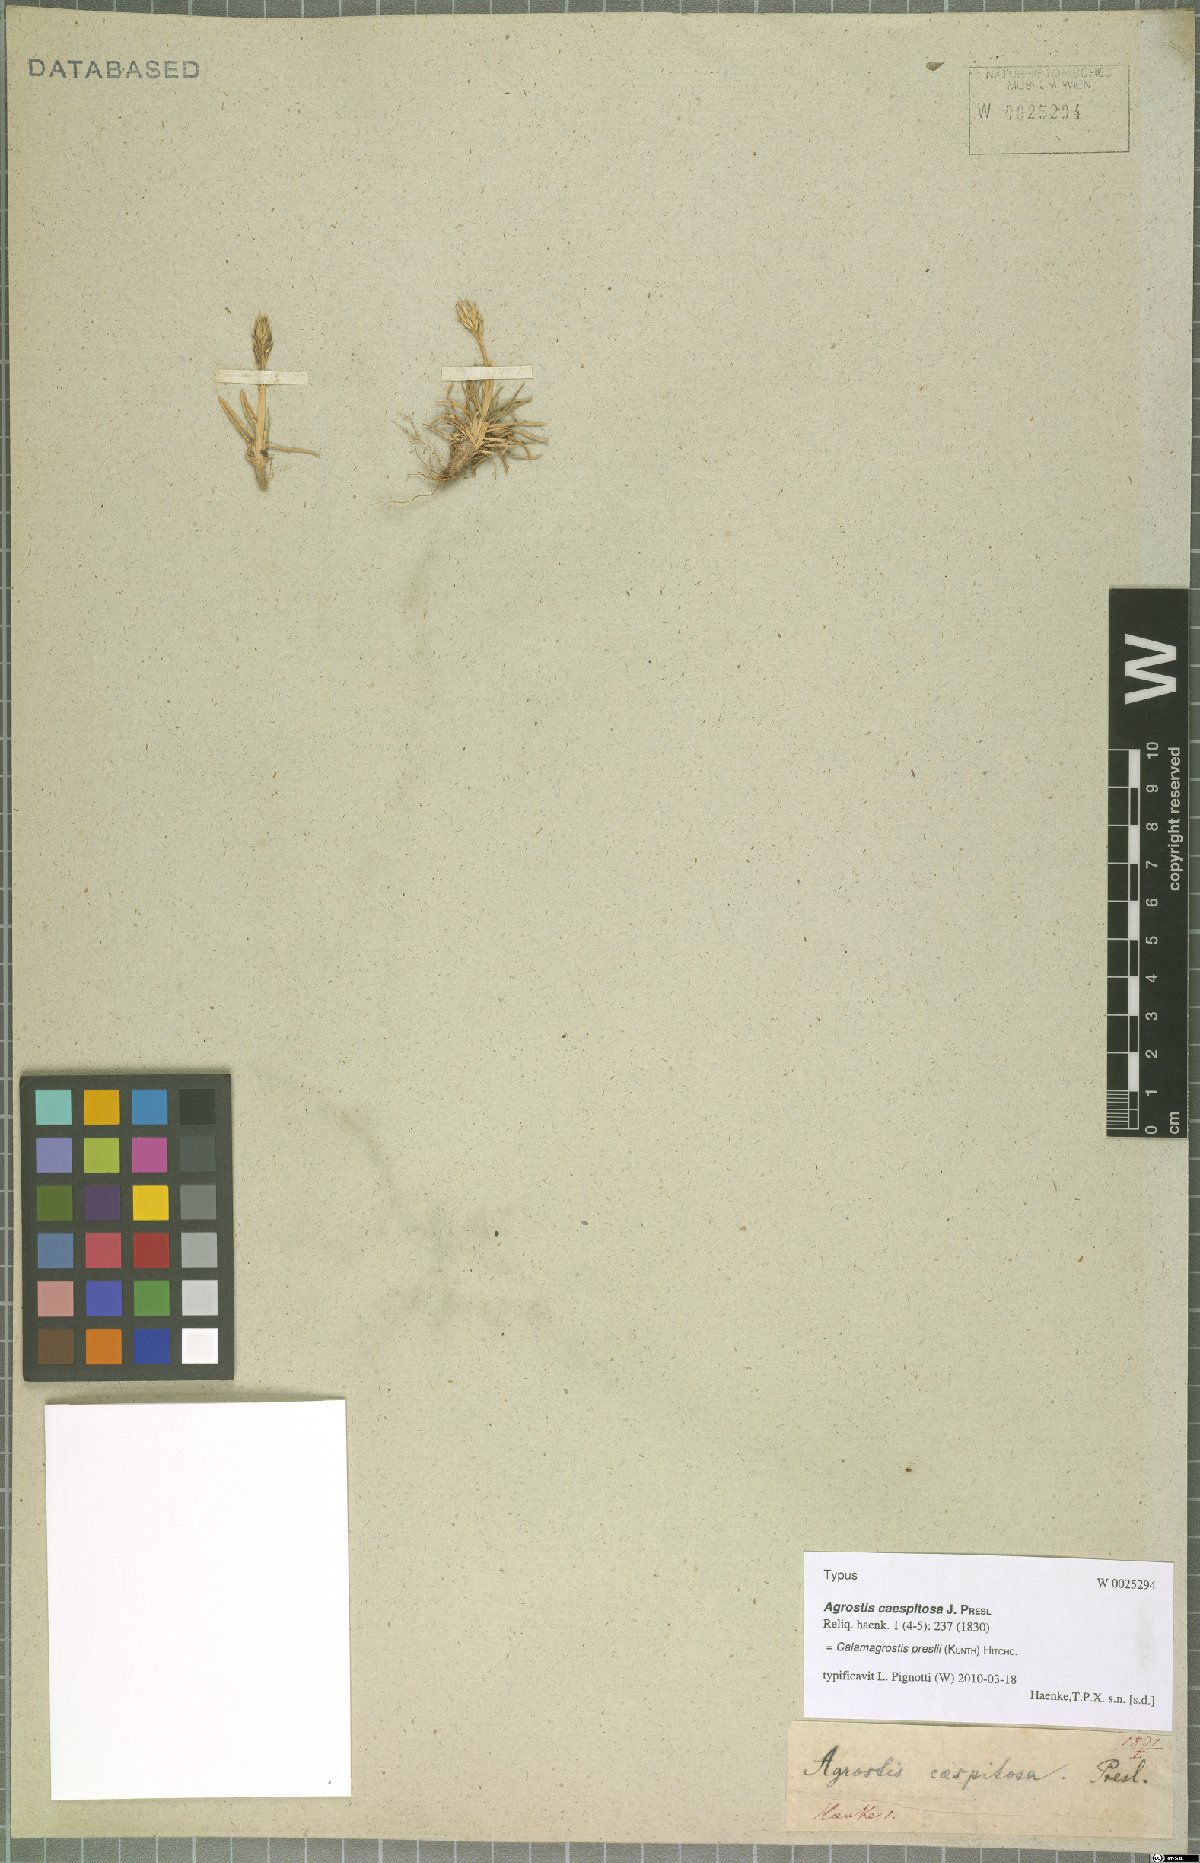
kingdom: Plantae
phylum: Tracheophyta
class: Liliopsida
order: Poales
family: Poaceae
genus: Cinnagrostis
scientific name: Cinnagrostis preslii
